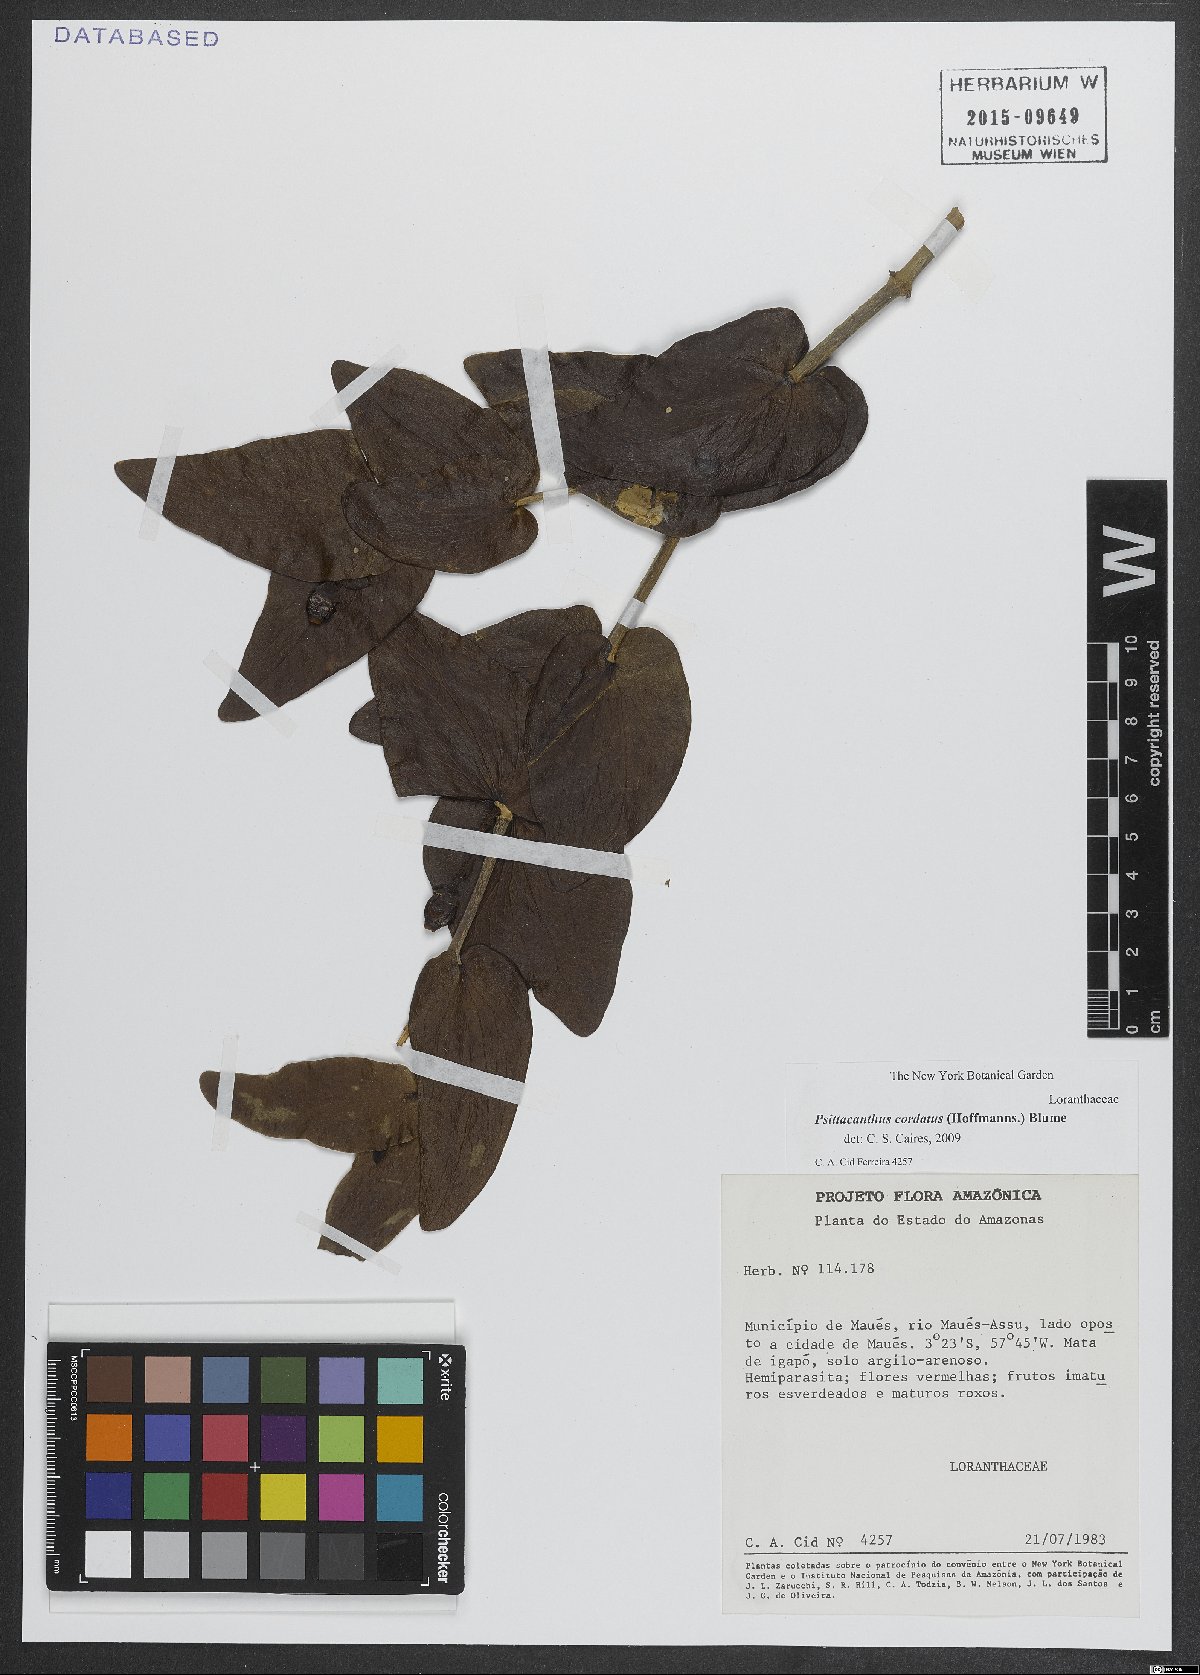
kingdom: Plantae
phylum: Tracheophyta
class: Magnoliopsida
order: Santalales
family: Loranthaceae
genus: Psittacanthus
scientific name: Psittacanthus cordatus
